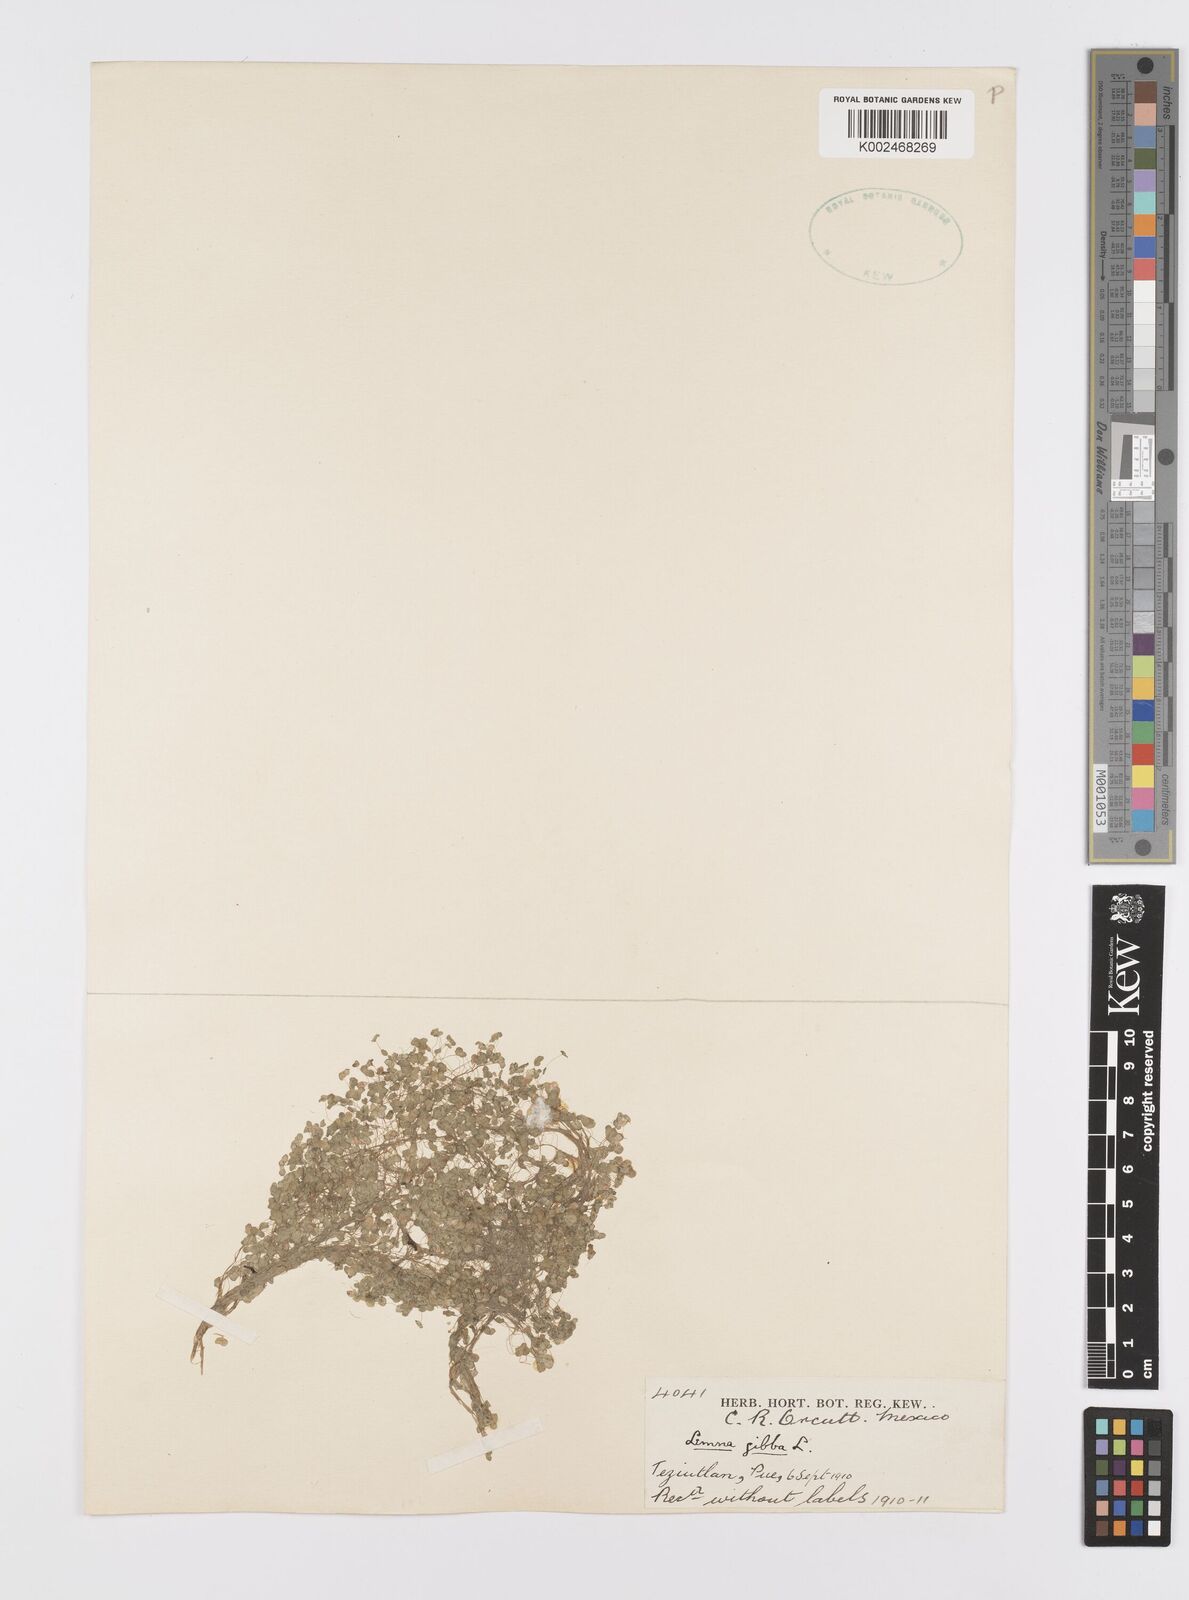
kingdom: Plantae
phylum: Tracheophyta
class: Liliopsida
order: Alismatales
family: Araceae
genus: Lemna
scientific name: Lemna gibba
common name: Fat duckweed
